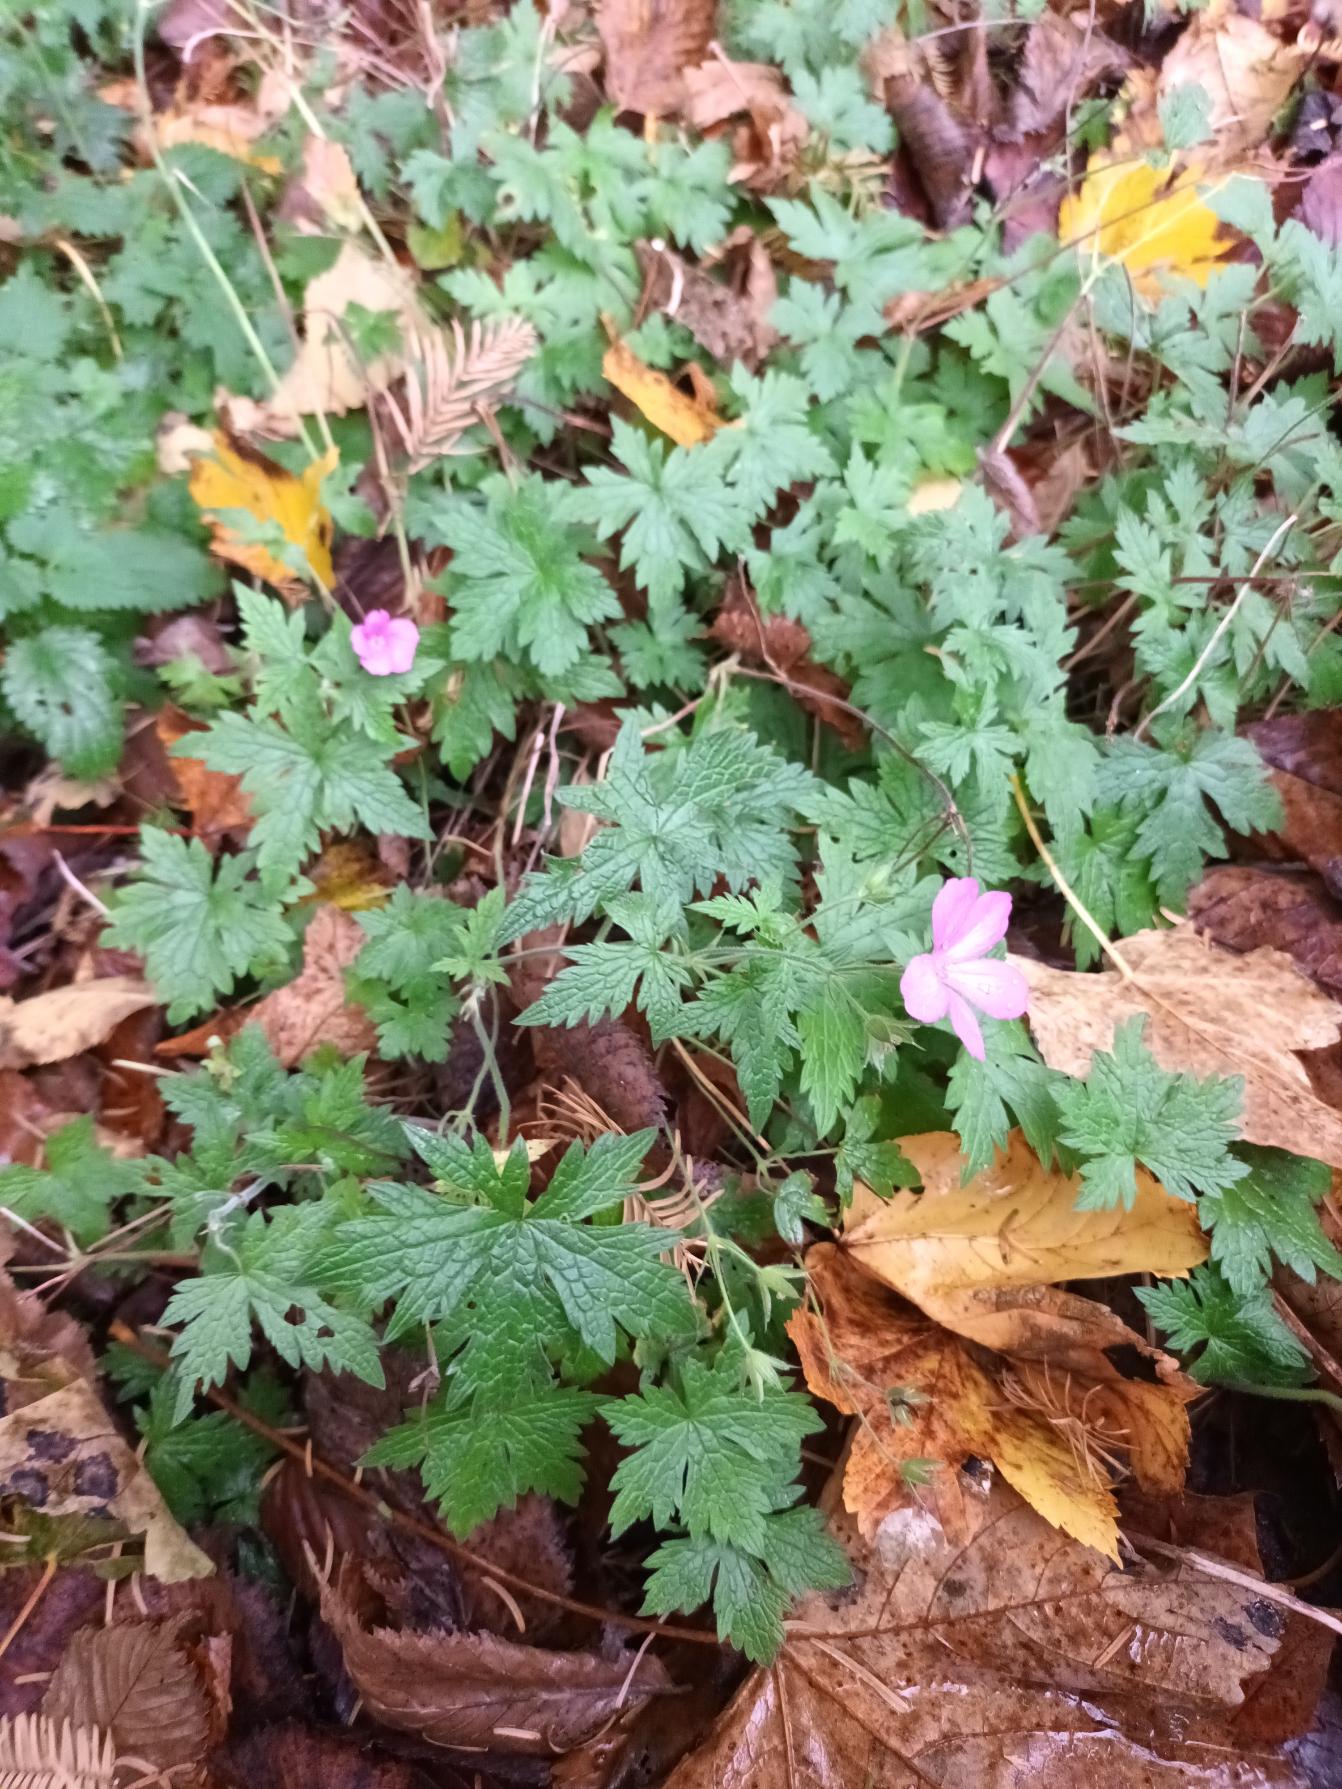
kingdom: Plantae
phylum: Tracheophyta
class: Magnoliopsida
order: Geraniales
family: Geraniaceae
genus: Geranium
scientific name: Geranium endressii
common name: Spansk storkenæb
